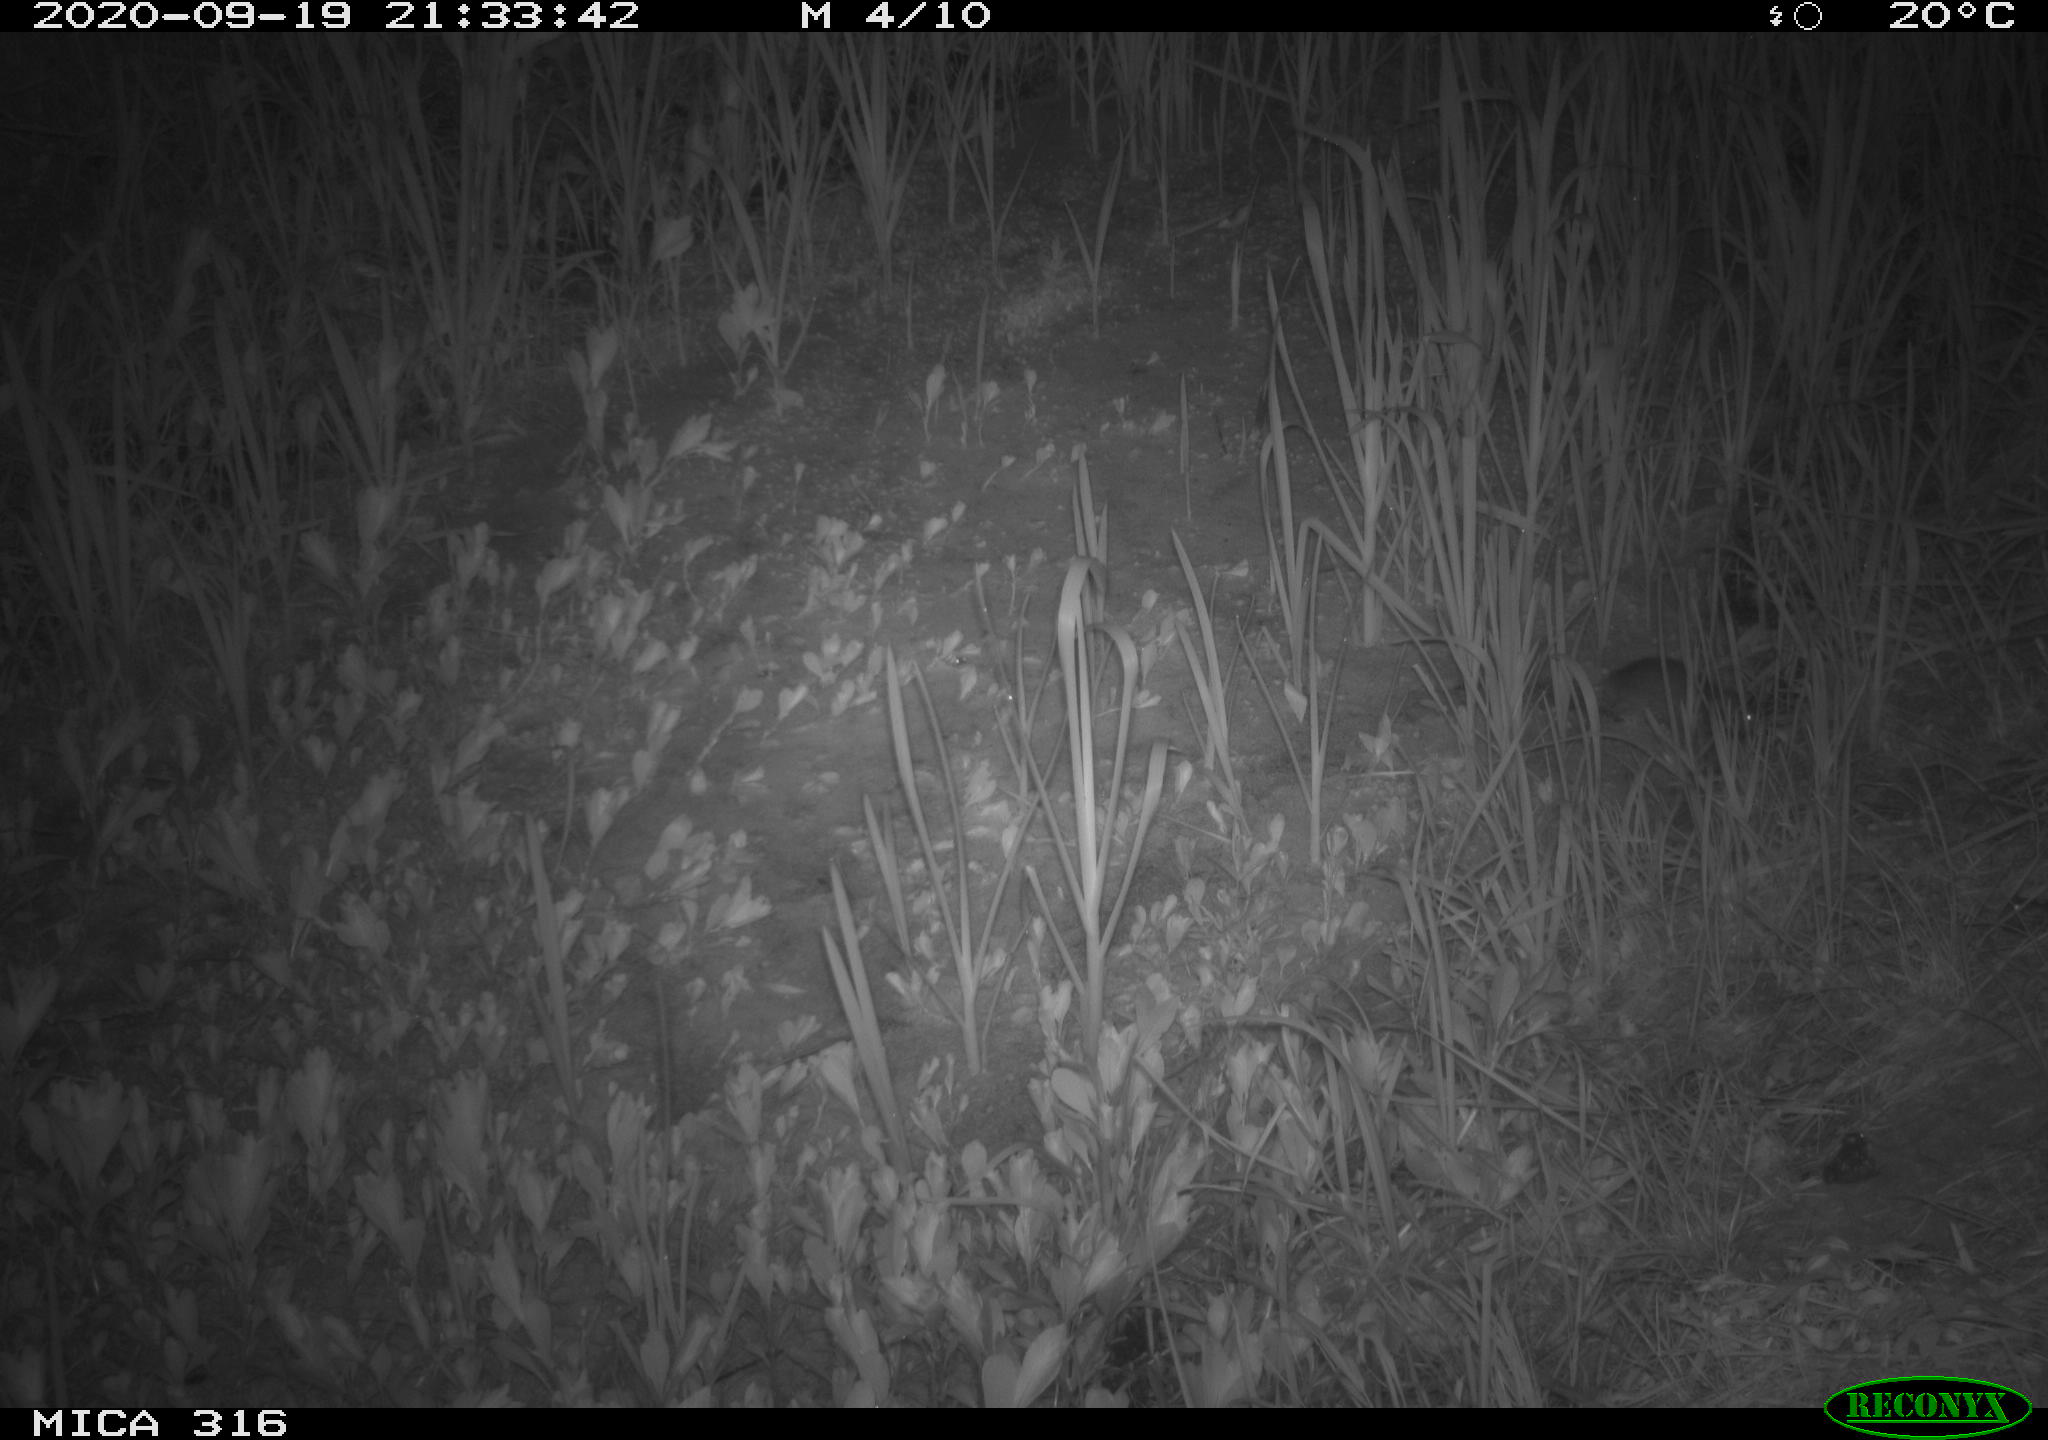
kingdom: Animalia
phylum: Chordata
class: Mammalia
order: Rodentia
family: Muridae
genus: Rattus
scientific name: Rattus norvegicus
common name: Brown rat
